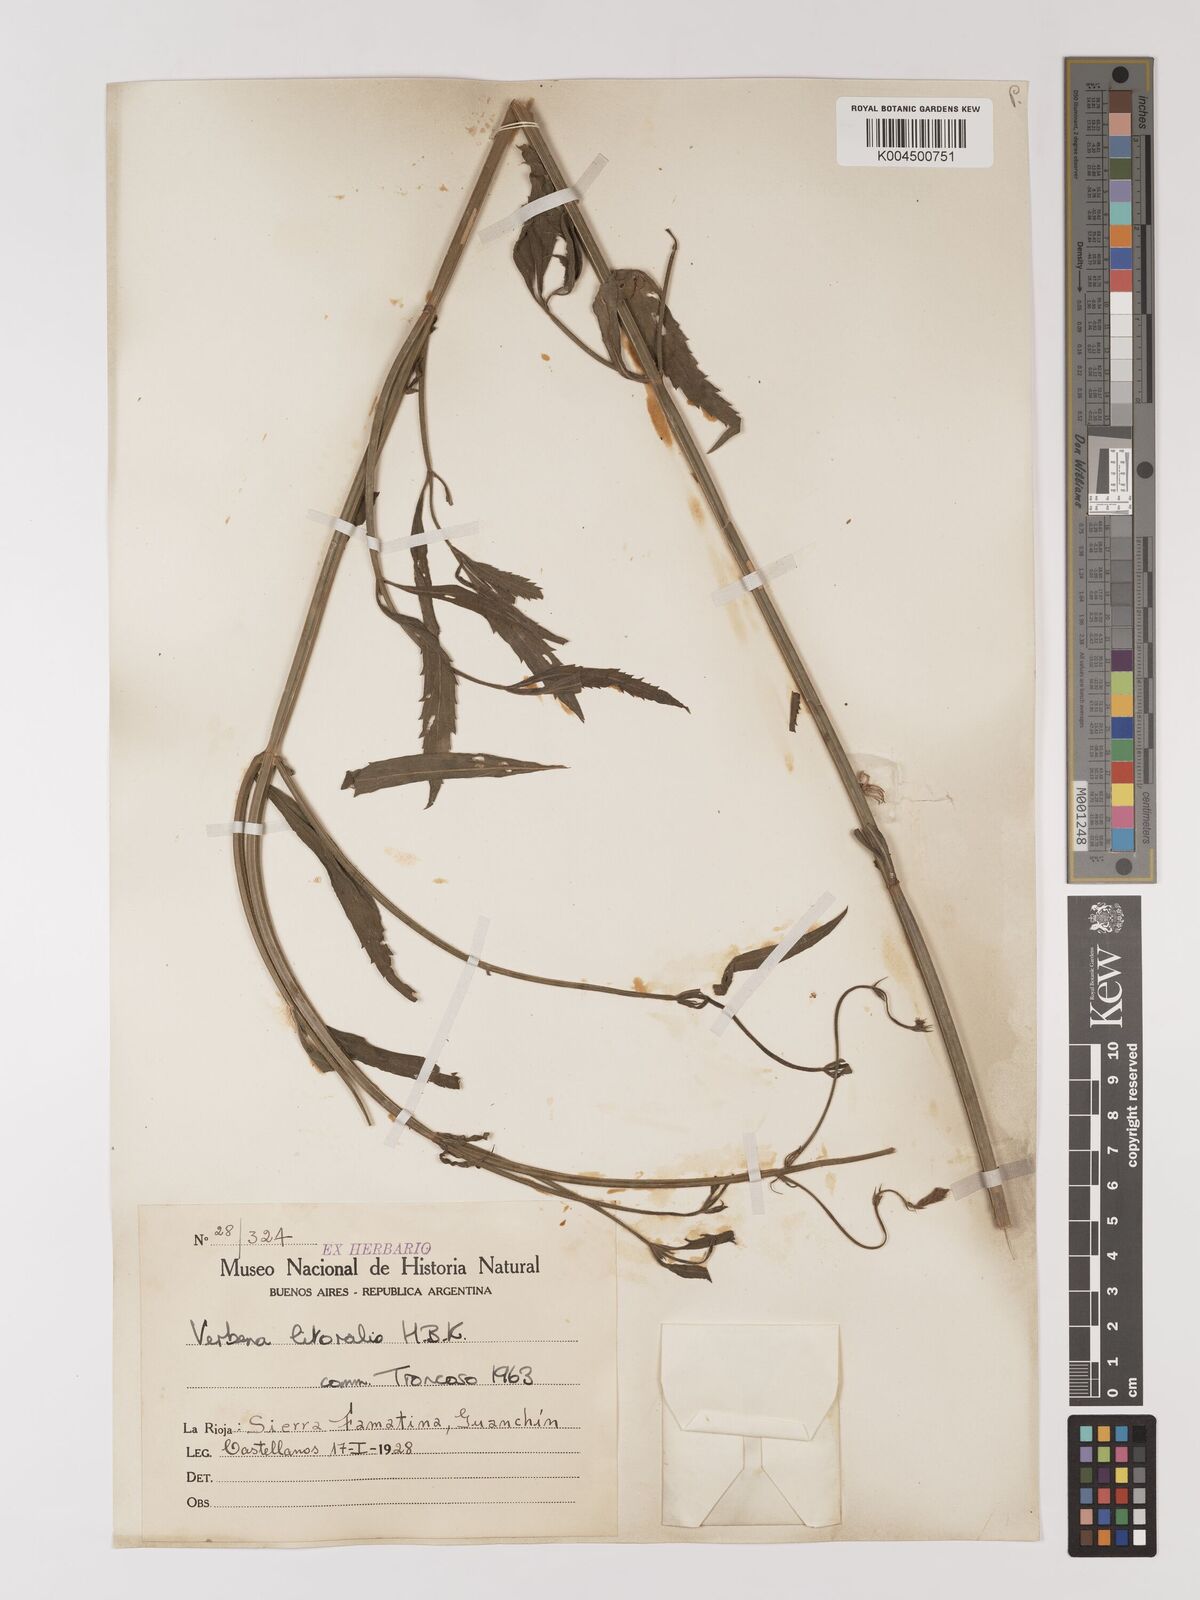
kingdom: Plantae
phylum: Tracheophyta
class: Magnoliopsida
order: Lamiales
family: Verbenaceae
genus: Verbena
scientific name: Verbena litoralis
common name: Seashore vervain
